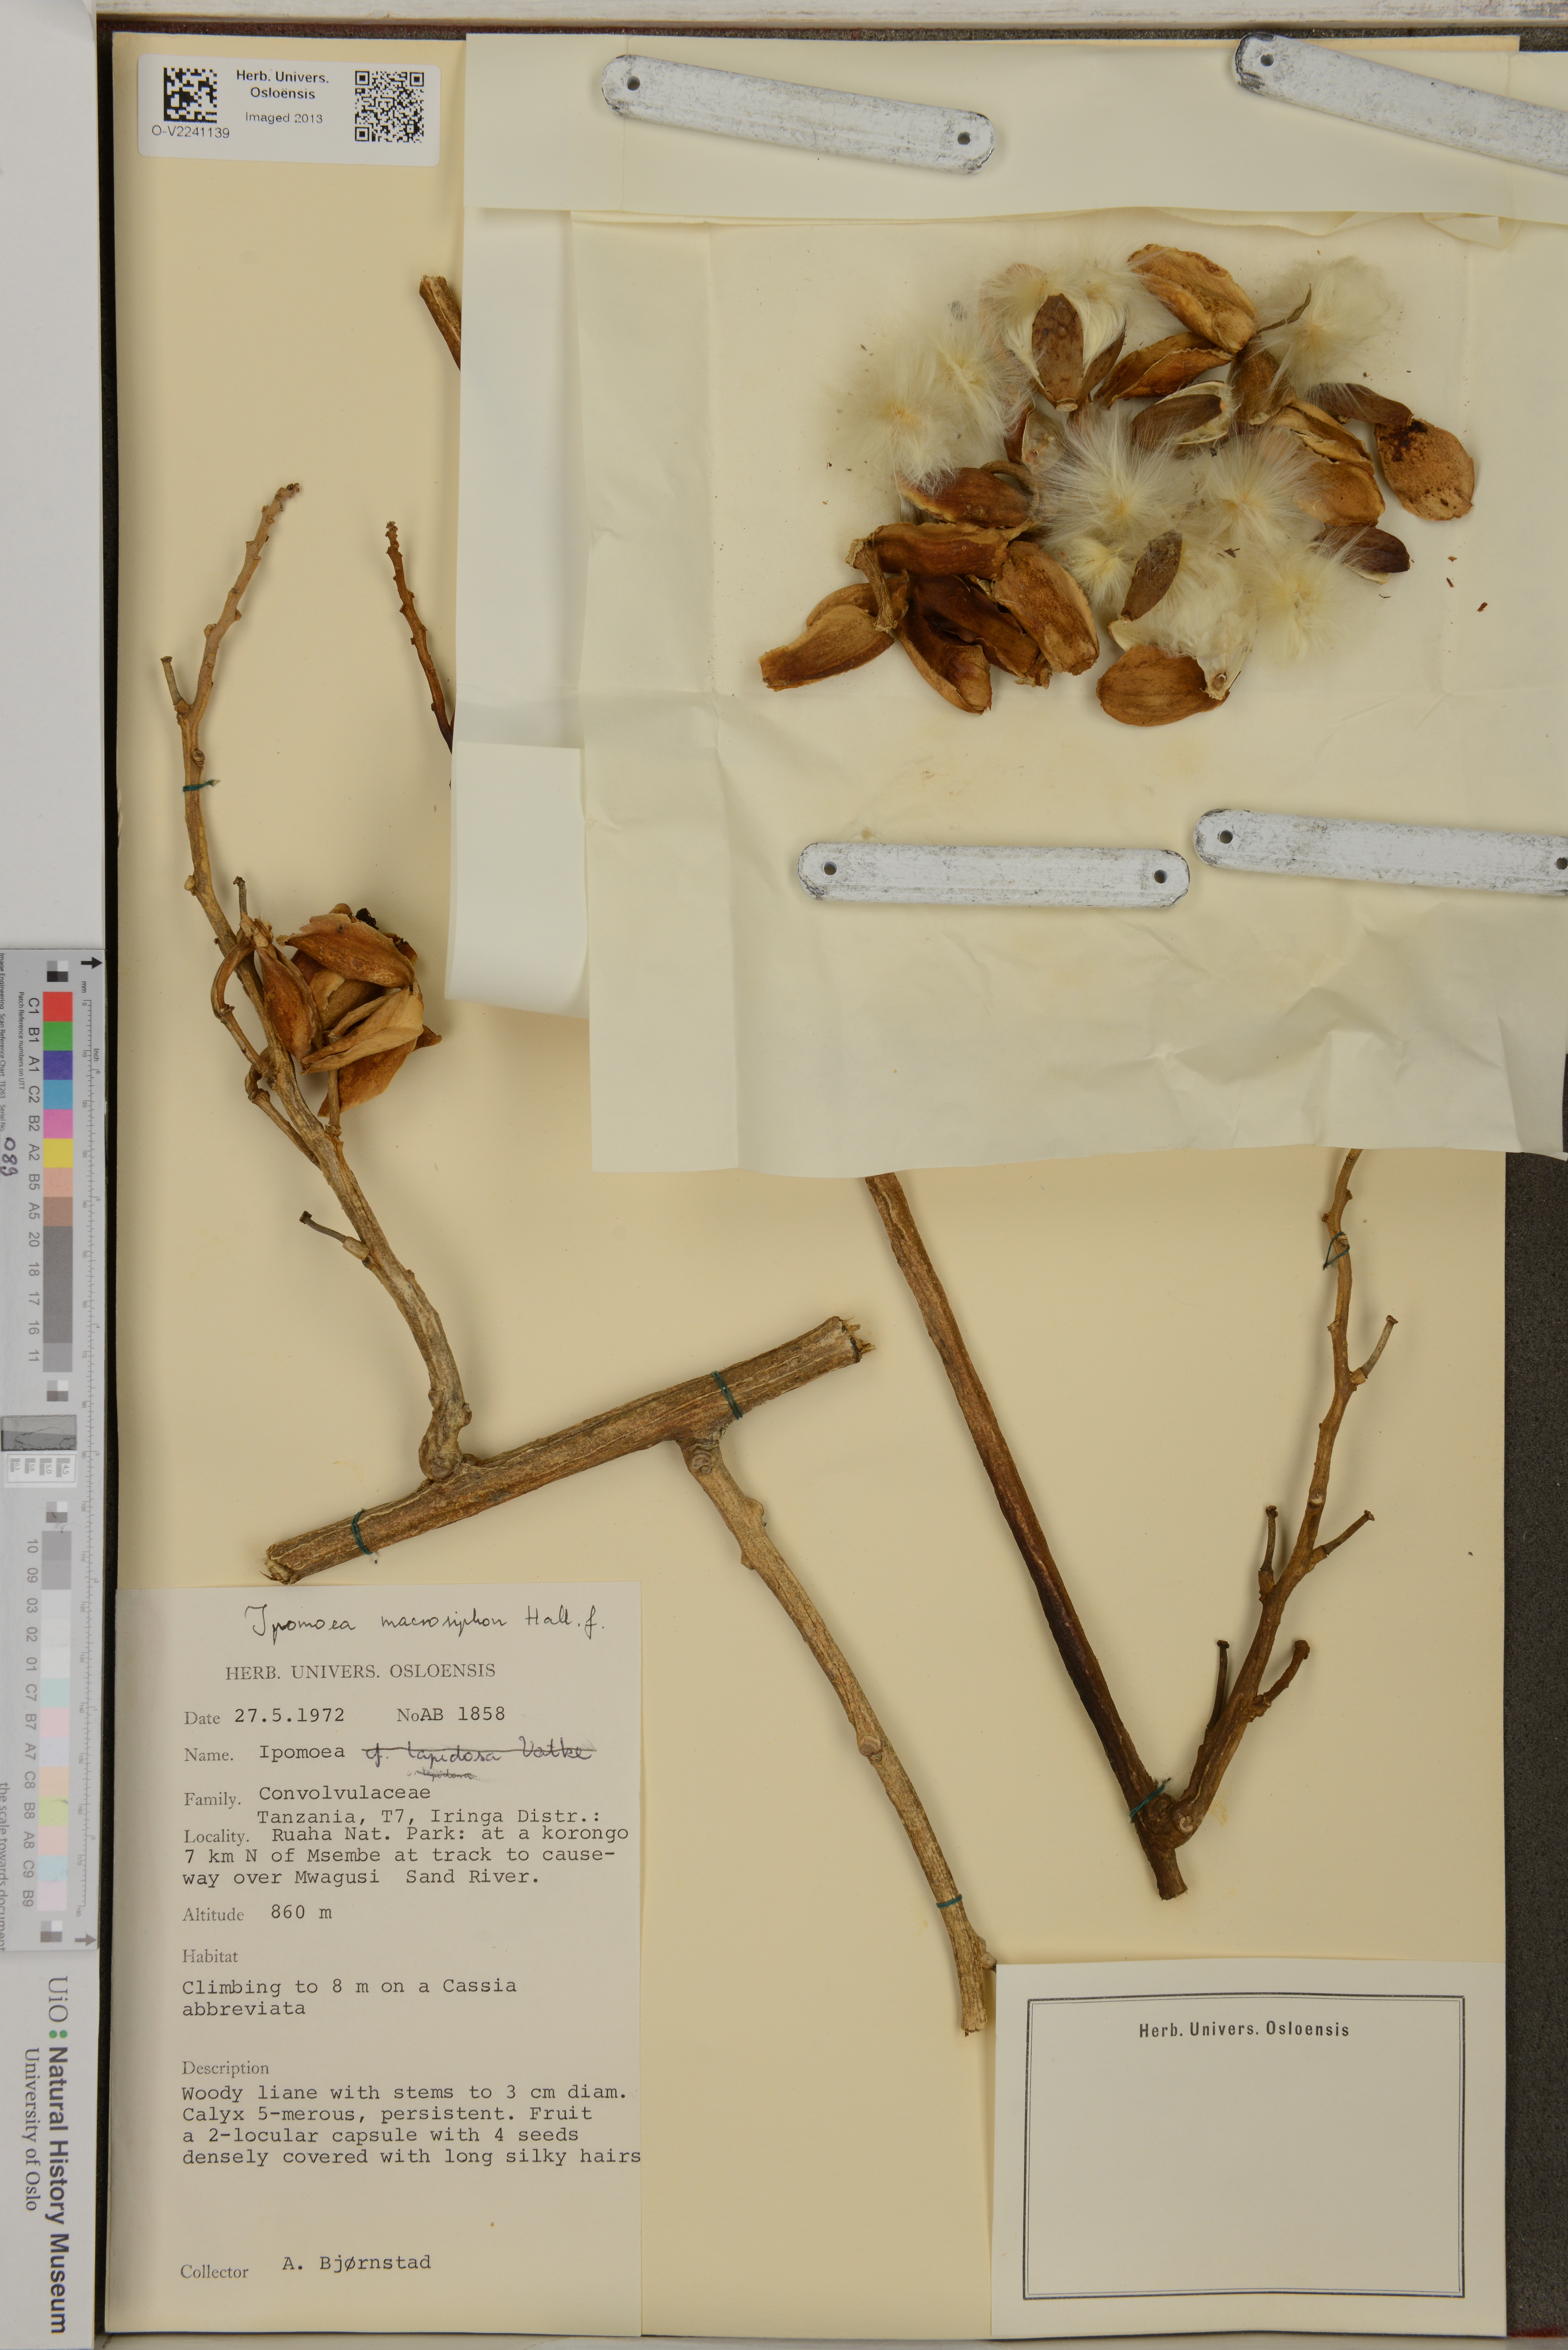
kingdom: Plantae
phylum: Tracheophyta
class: Magnoliopsida
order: Solanales
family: Convolvulaceae
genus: Ipomoea
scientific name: Ipomoea macrosiphon
